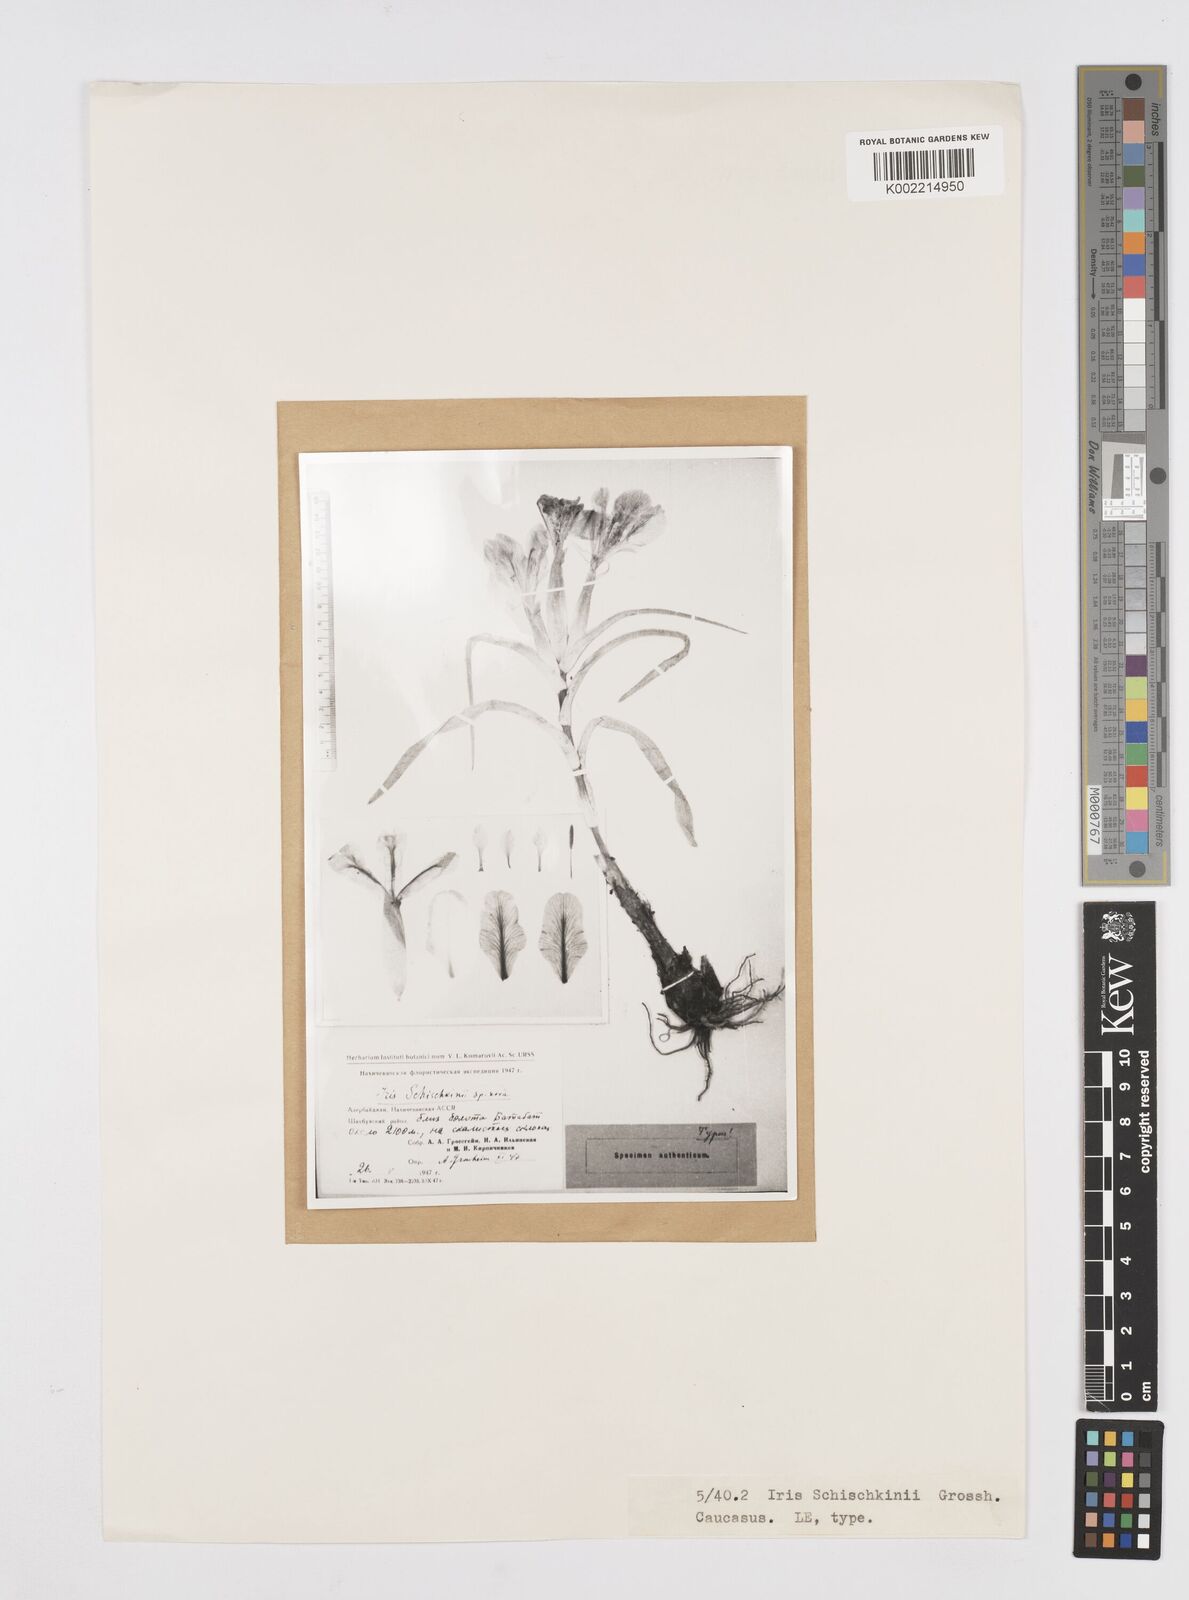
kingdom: Plantae
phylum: Tracheophyta
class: Liliopsida
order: Asparagales
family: Iridaceae
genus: Iris
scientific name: Iris caucasica
